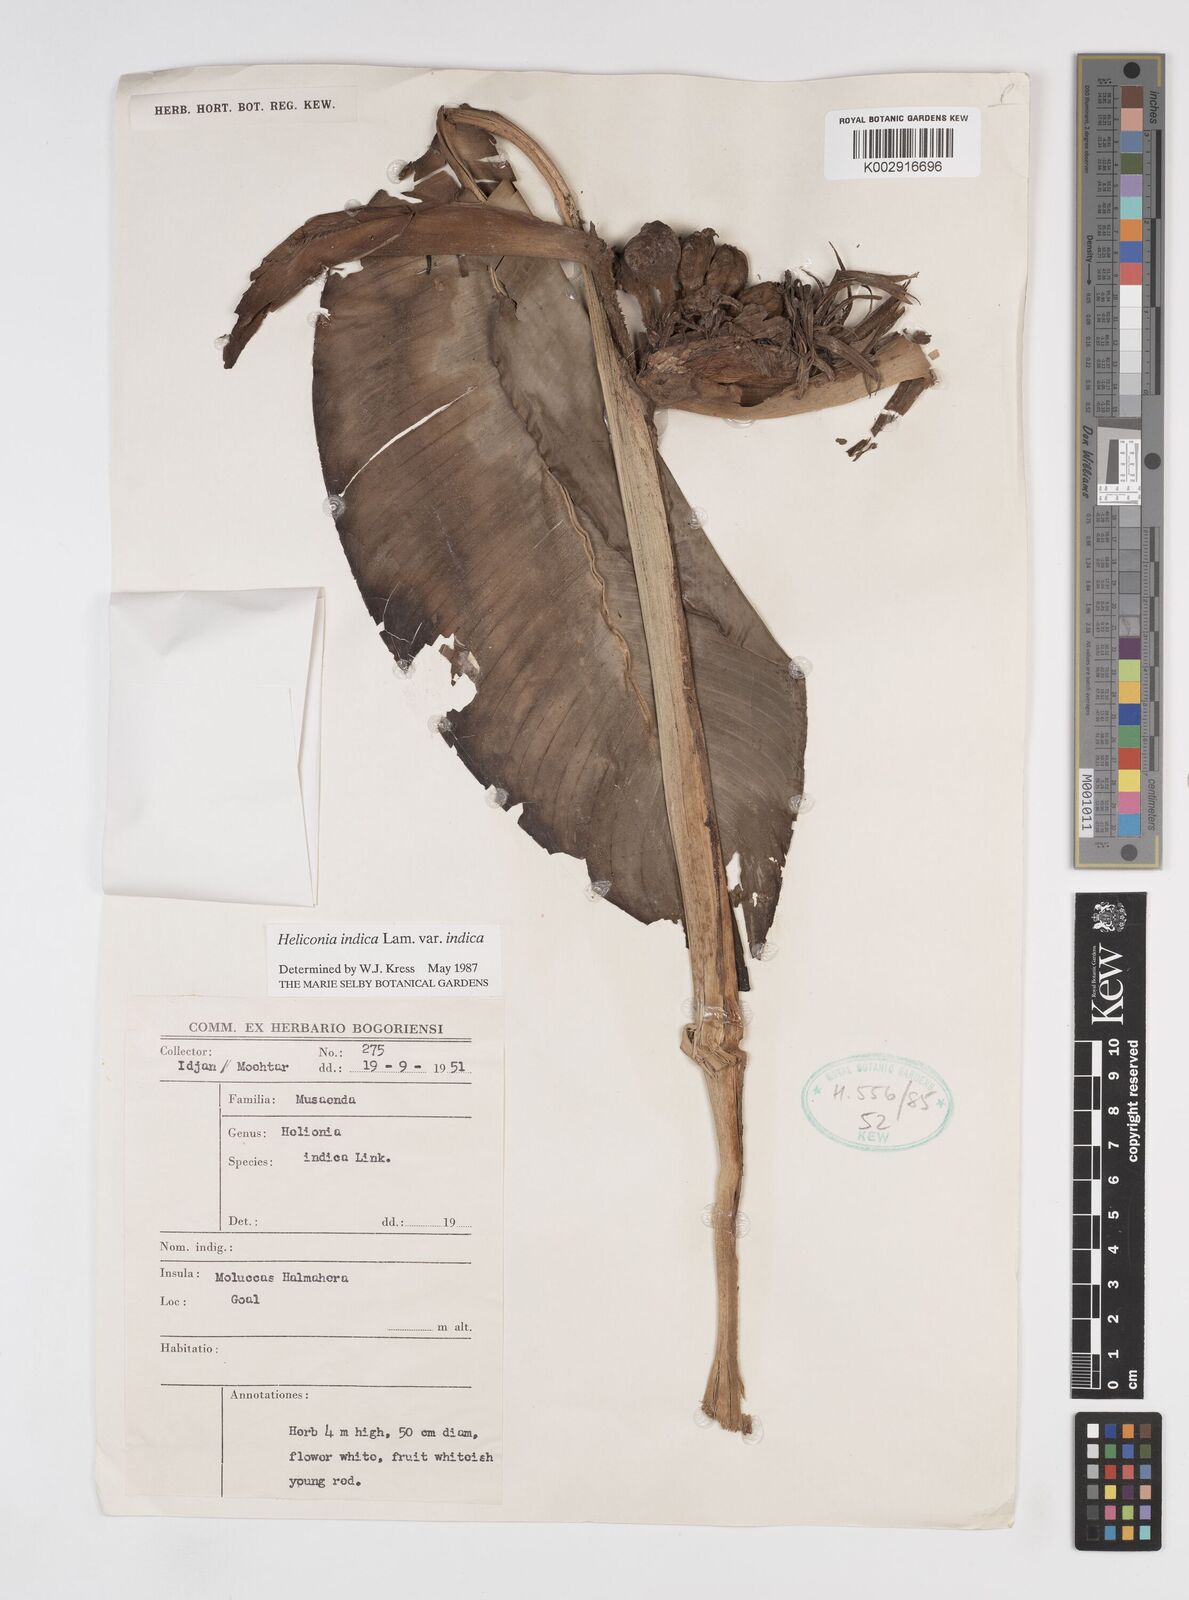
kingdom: Plantae
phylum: Tracheophyta
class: Liliopsida
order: Zingiberales
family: Heliconiaceae
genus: Heliconia
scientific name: Heliconia indica
